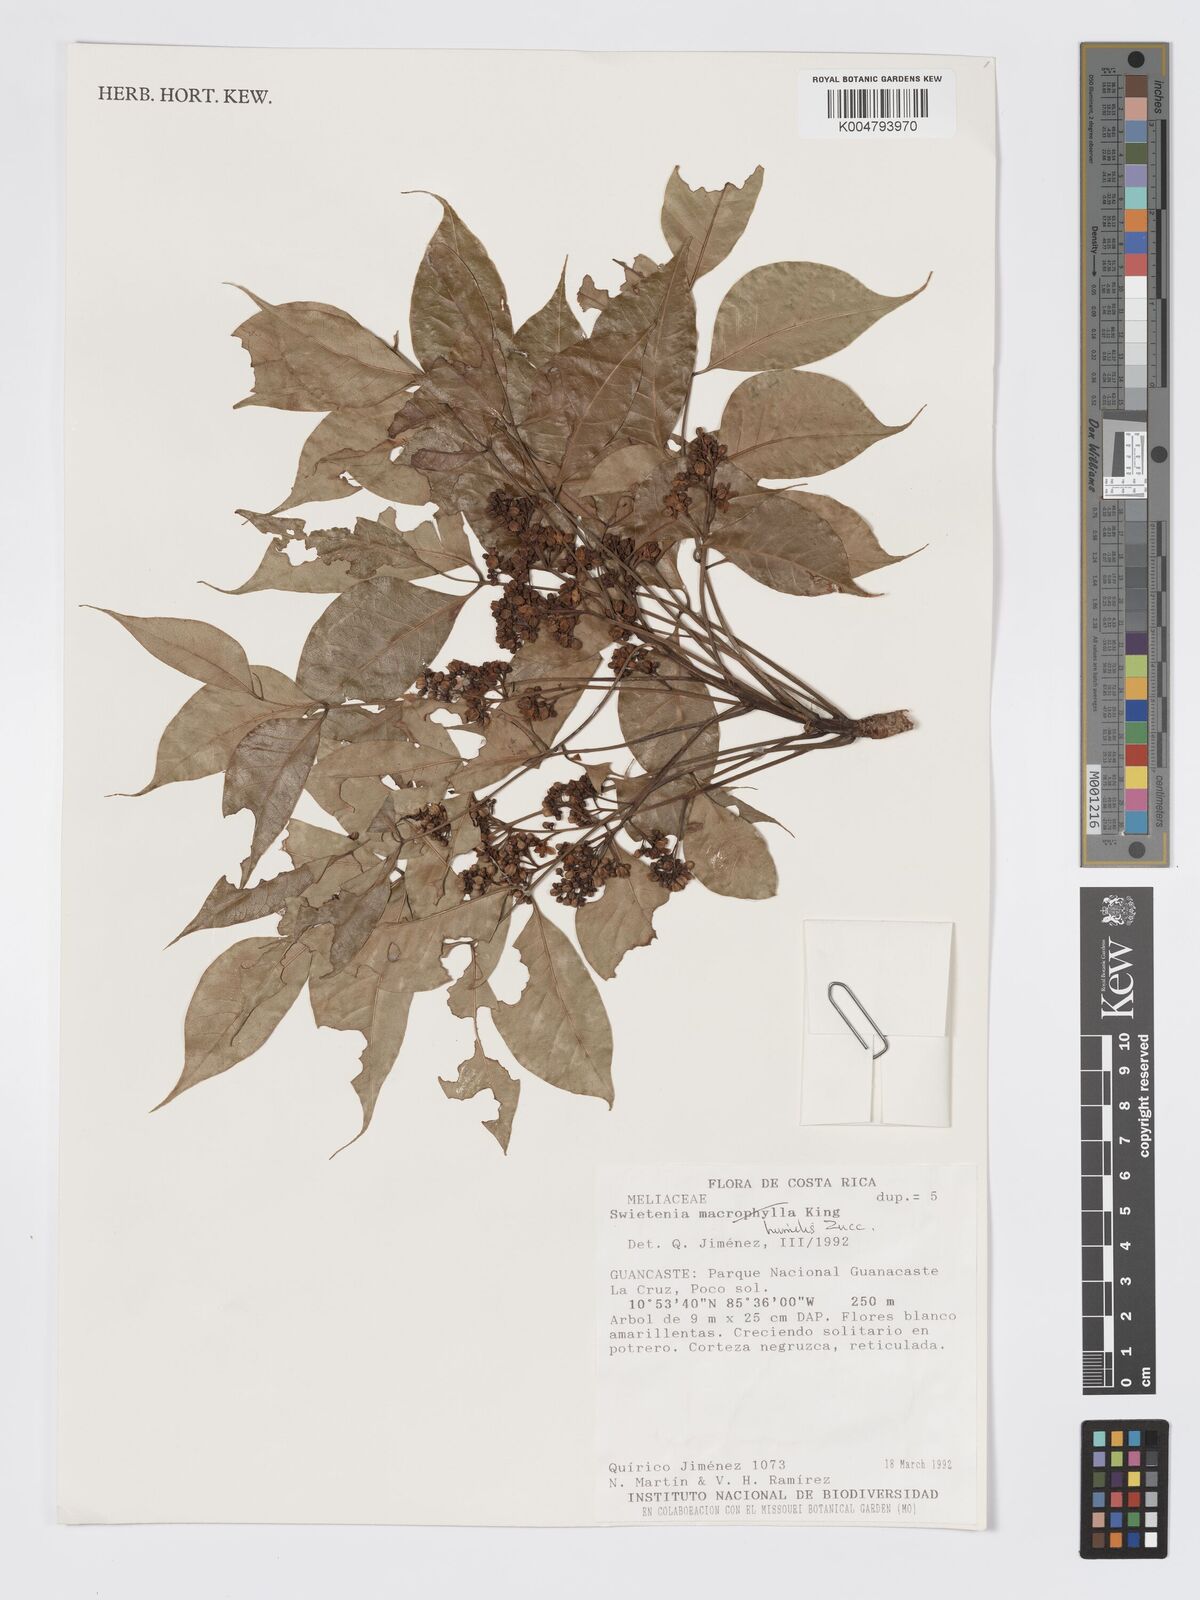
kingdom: Plantae
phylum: Tracheophyta
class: Magnoliopsida
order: Sapindales
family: Meliaceae
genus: Swietenia
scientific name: Swietenia humilis
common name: Pacific coast mahogany
